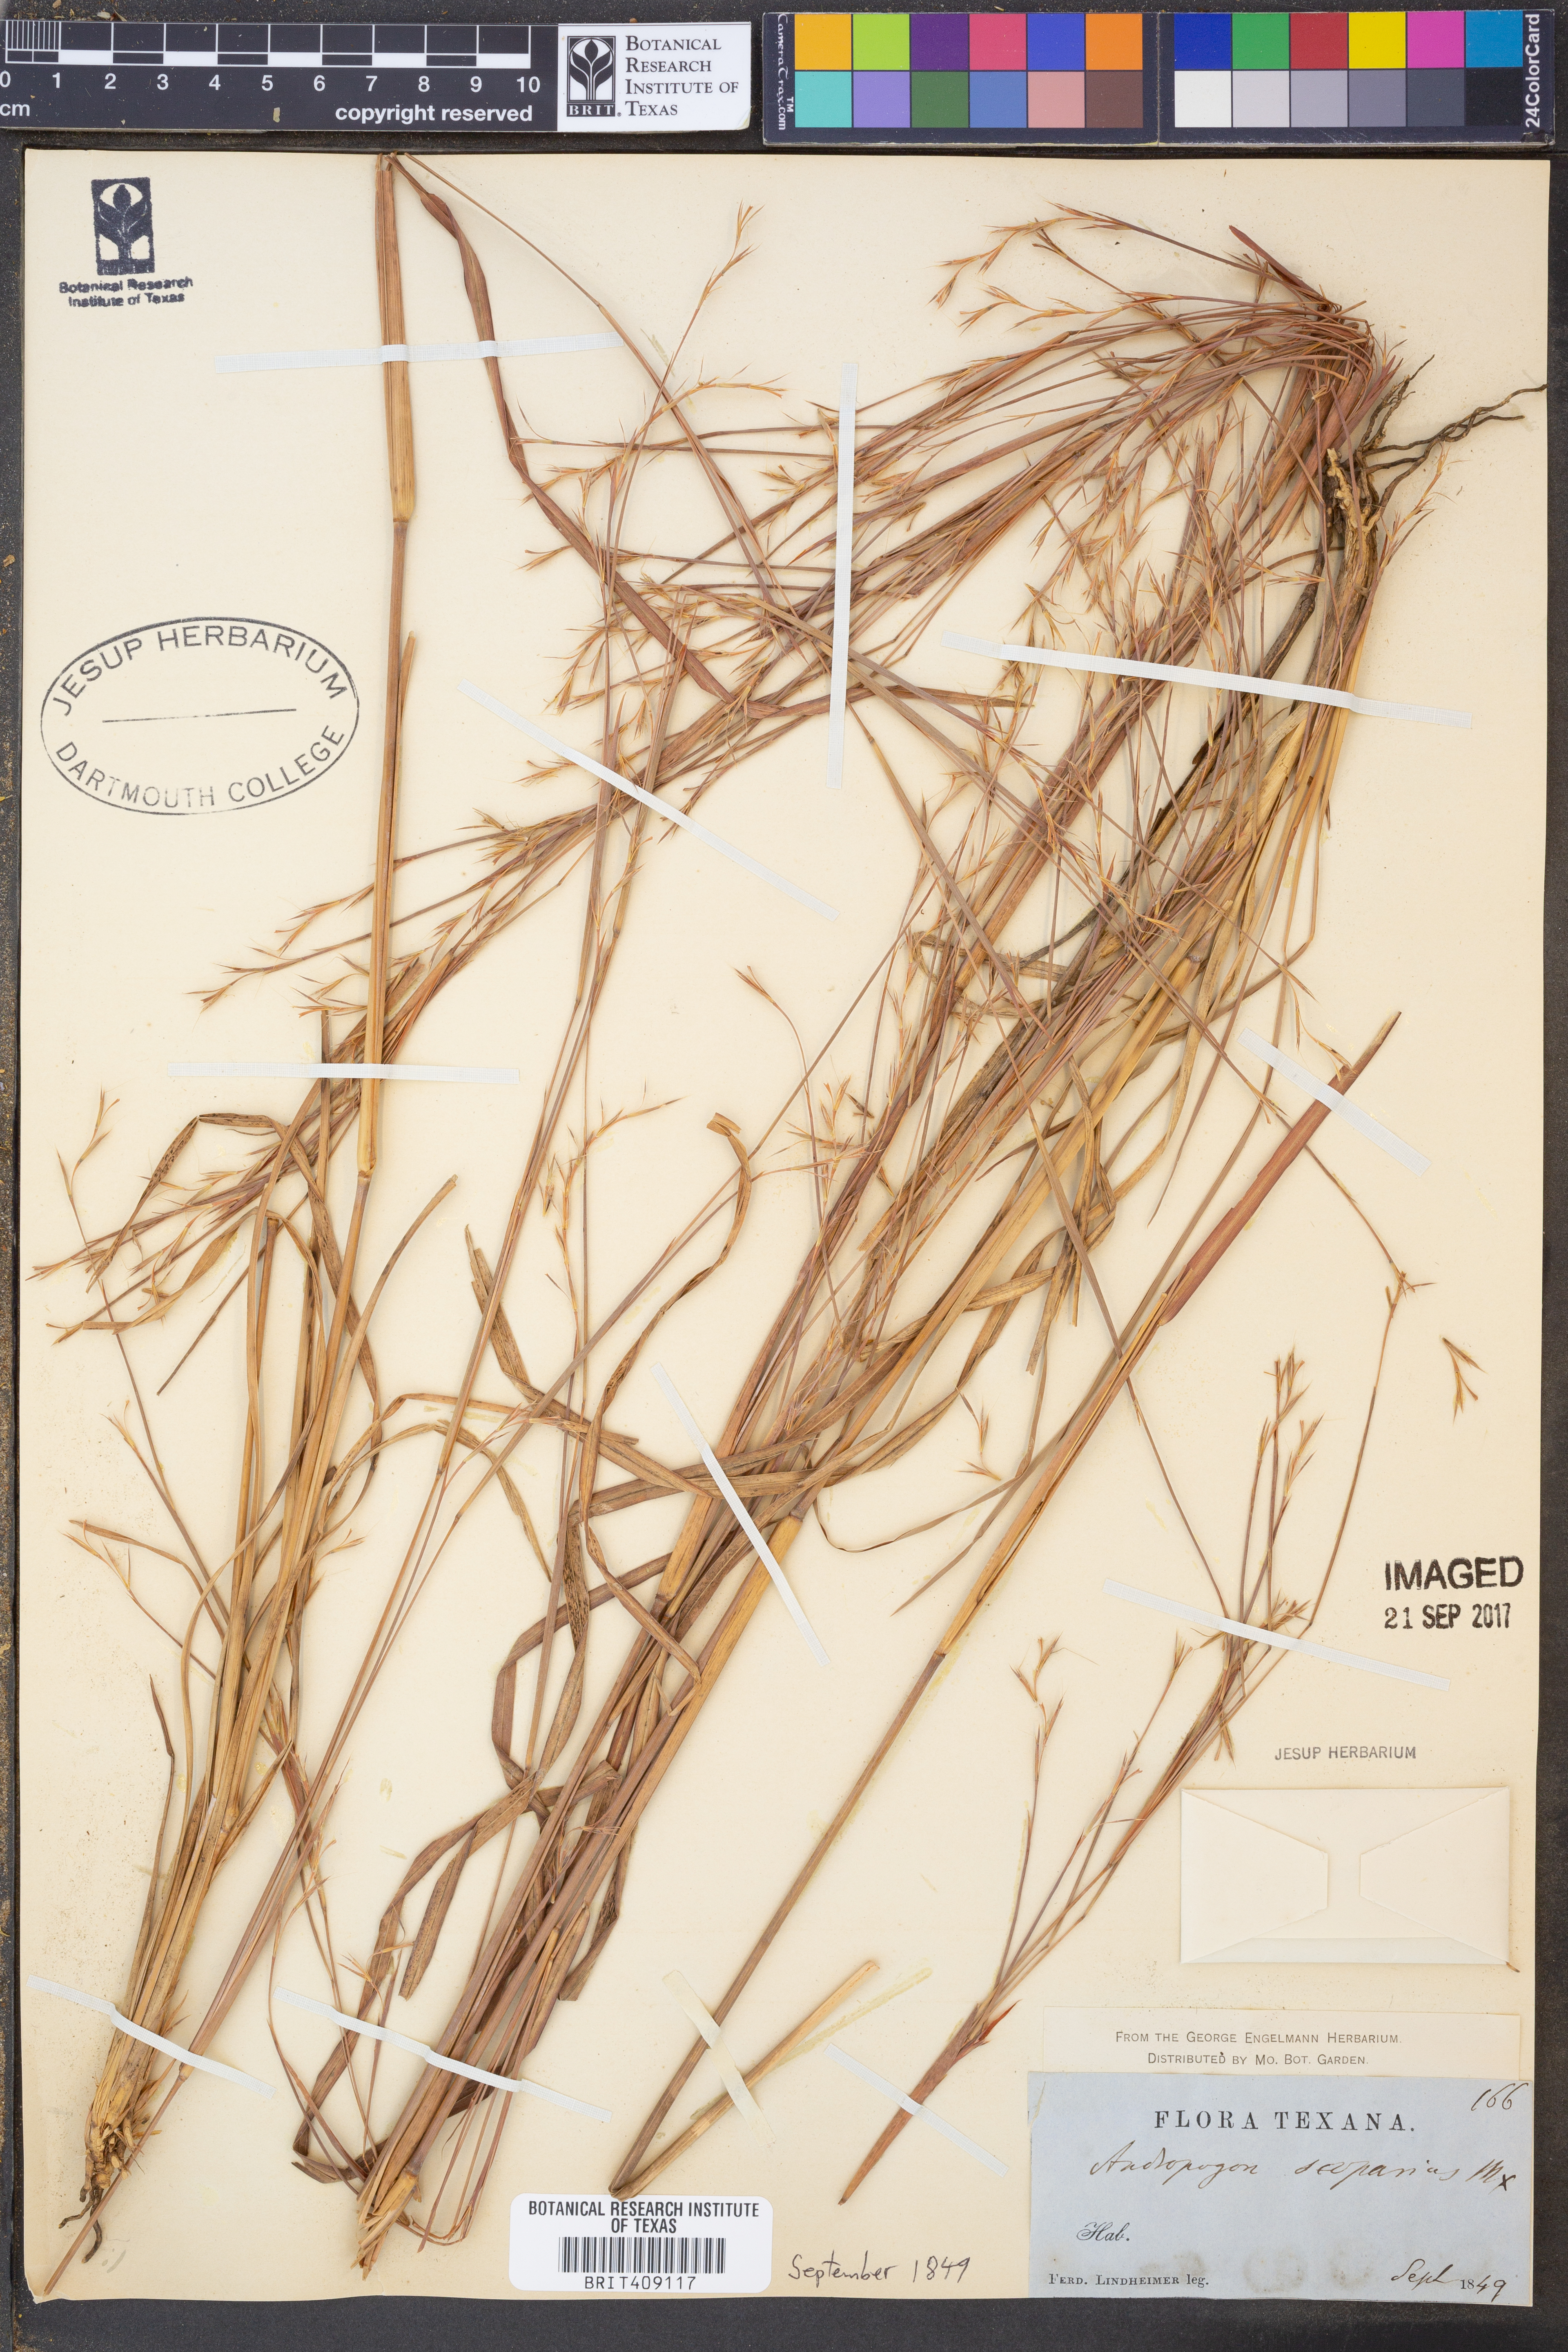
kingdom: Plantae
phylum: Tracheophyta
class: Liliopsida
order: Poales
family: Poaceae
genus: Schizachyrium
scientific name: Schizachyrium scoparium
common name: Little bluestem
